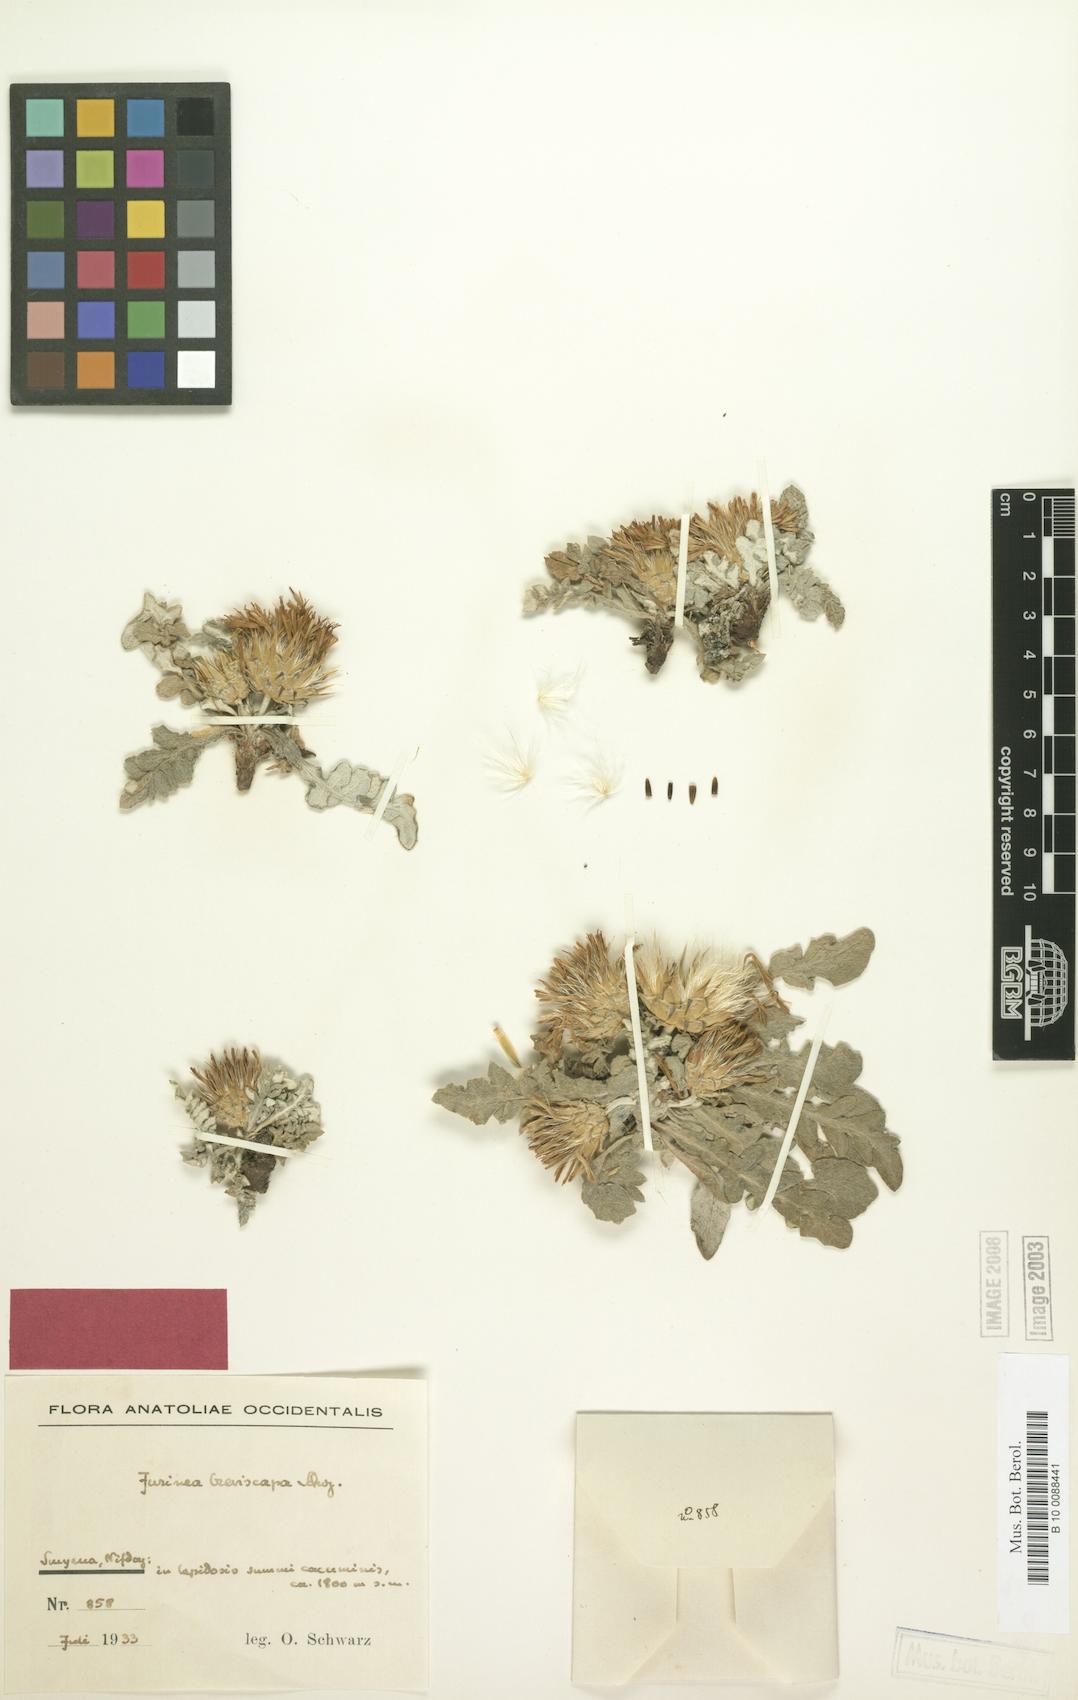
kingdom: Plantae
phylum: Tracheophyta
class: Magnoliopsida
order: Asterales
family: Asteraceae
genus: Jurinea
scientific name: Jurinea breviscapa
